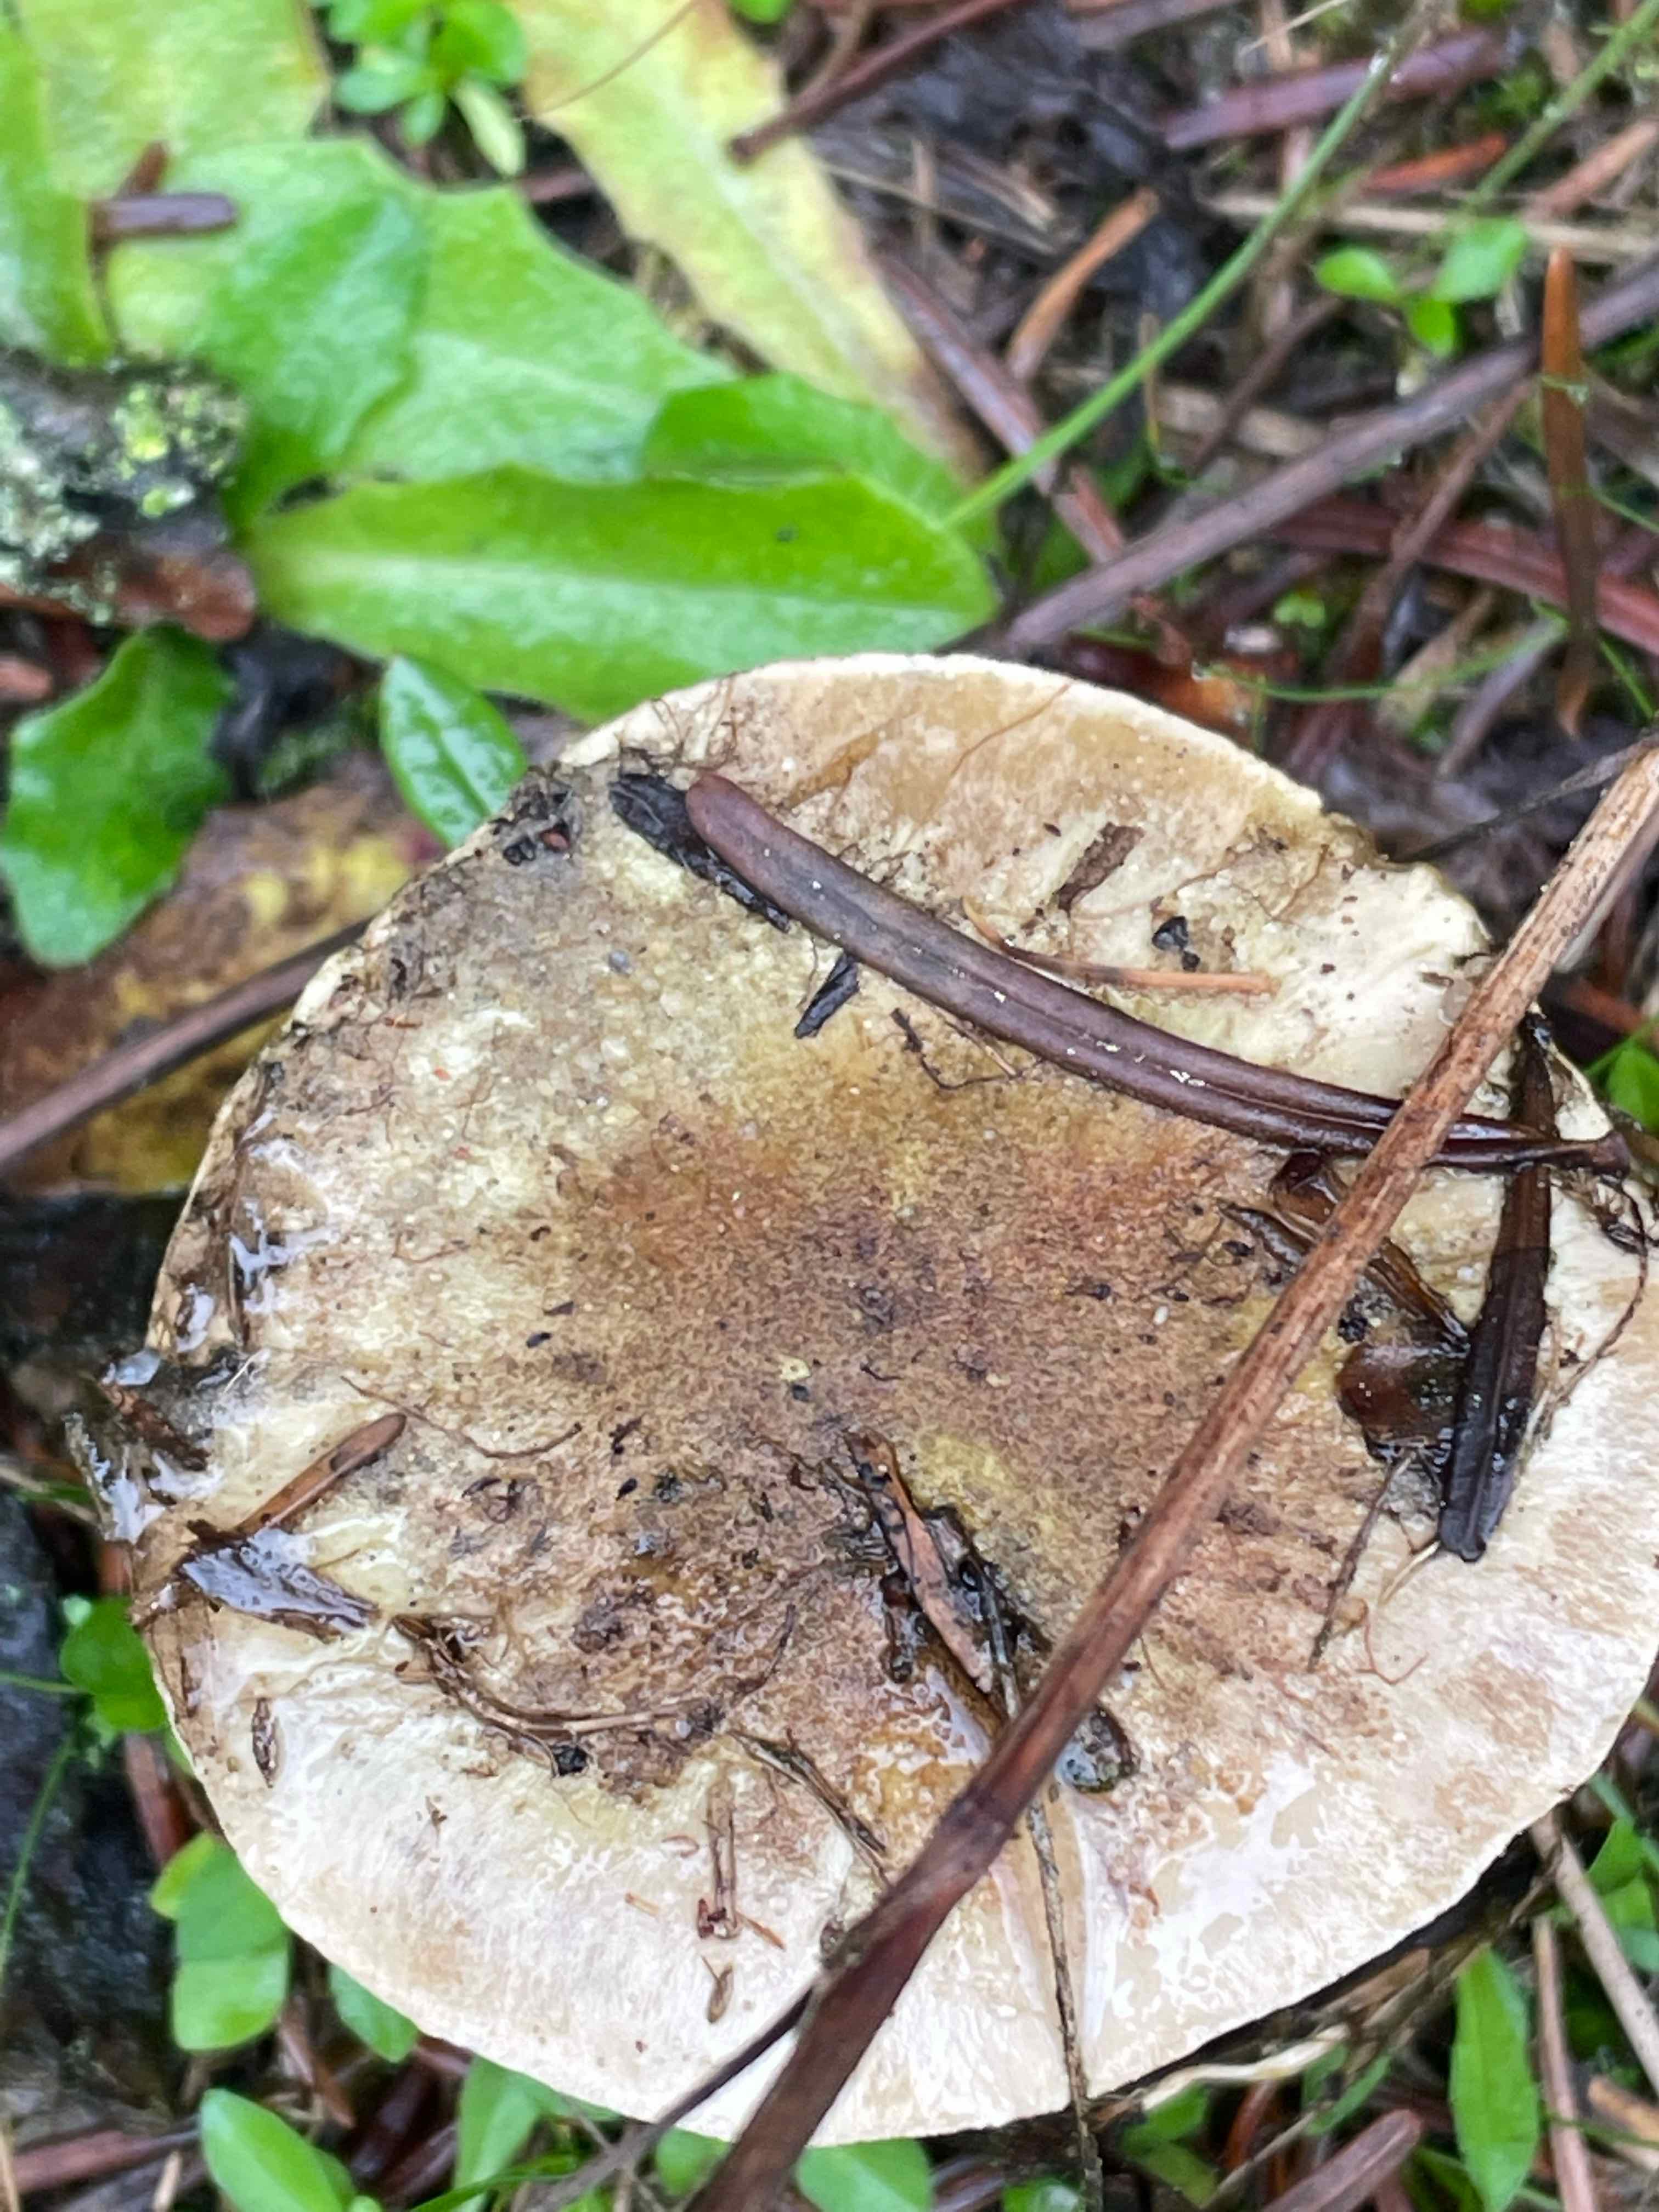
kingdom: Fungi
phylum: Basidiomycota
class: Agaricomycetes
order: Agaricales
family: Tricholomataceae
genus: Tricholoma
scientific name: Tricholoma equestre
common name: ægte ridderhat
